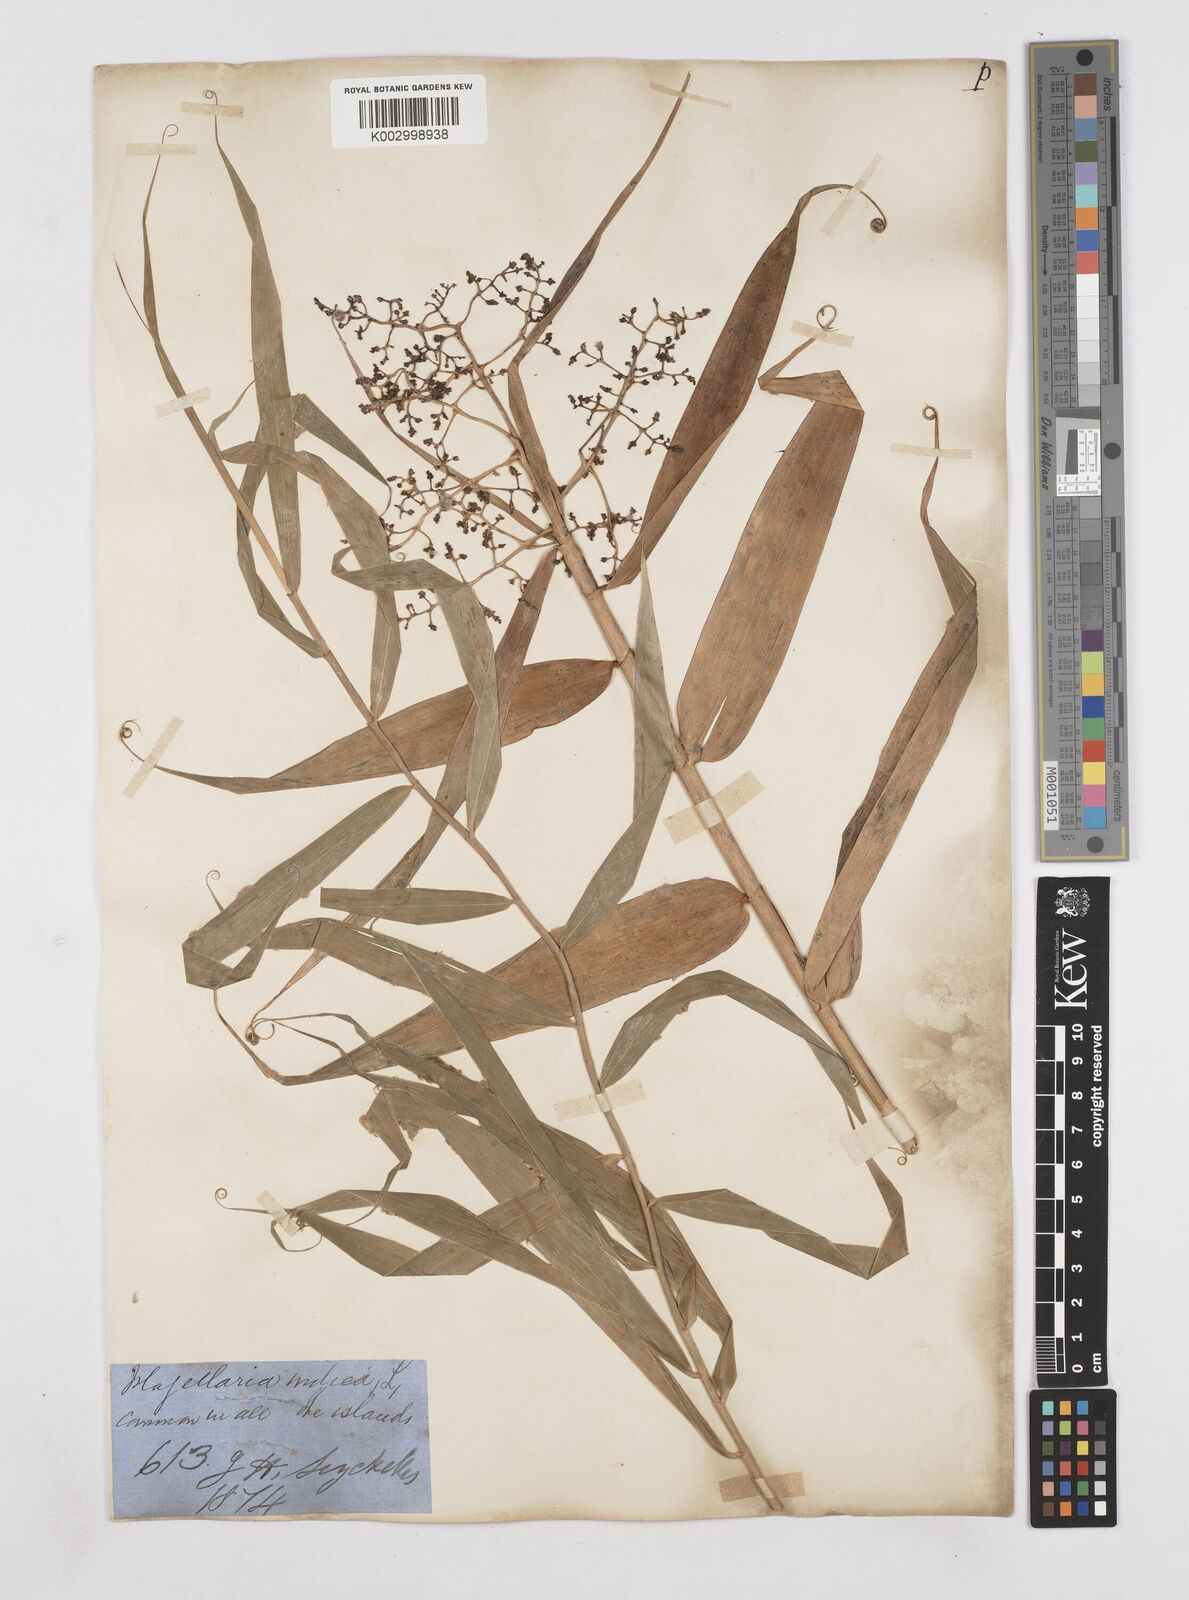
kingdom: Plantae
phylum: Tracheophyta
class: Liliopsida
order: Poales
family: Flagellariaceae
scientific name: Flagellariaceae
